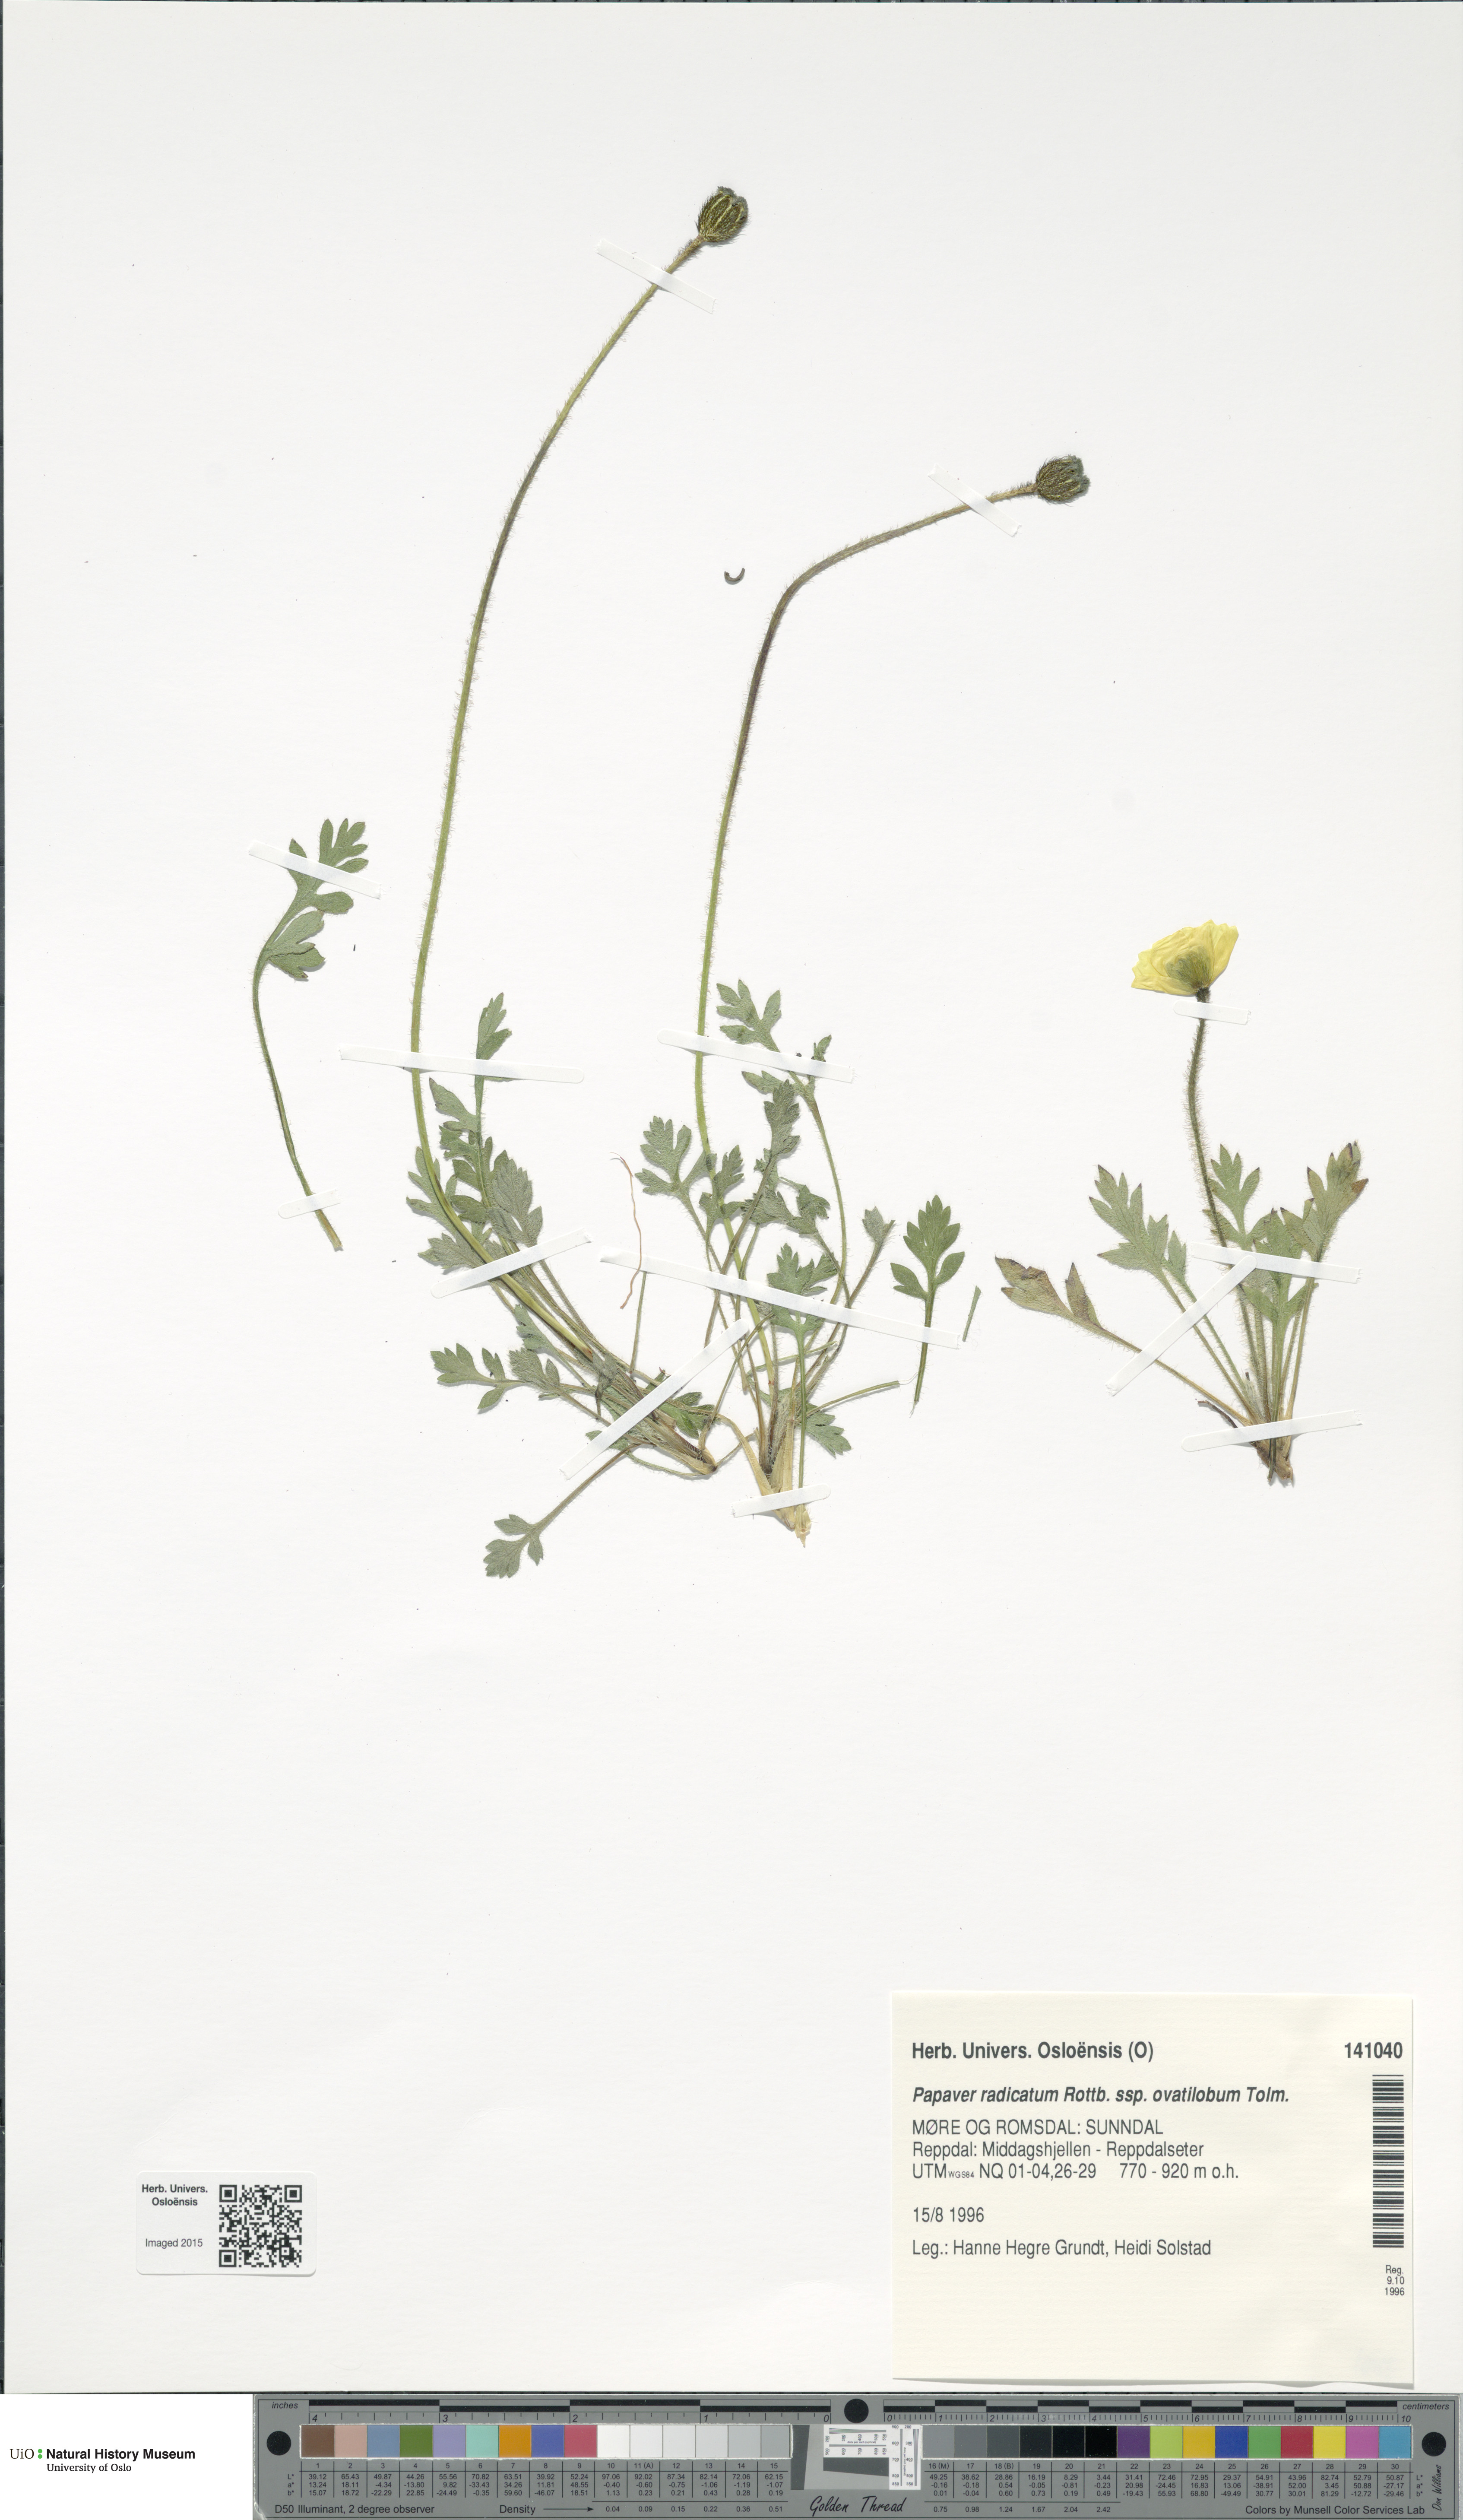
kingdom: Plantae
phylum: Tracheophyta
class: Magnoliopsida
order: Ranunculales
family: Papaveraceae
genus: Papaver
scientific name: Papaver radicatum
